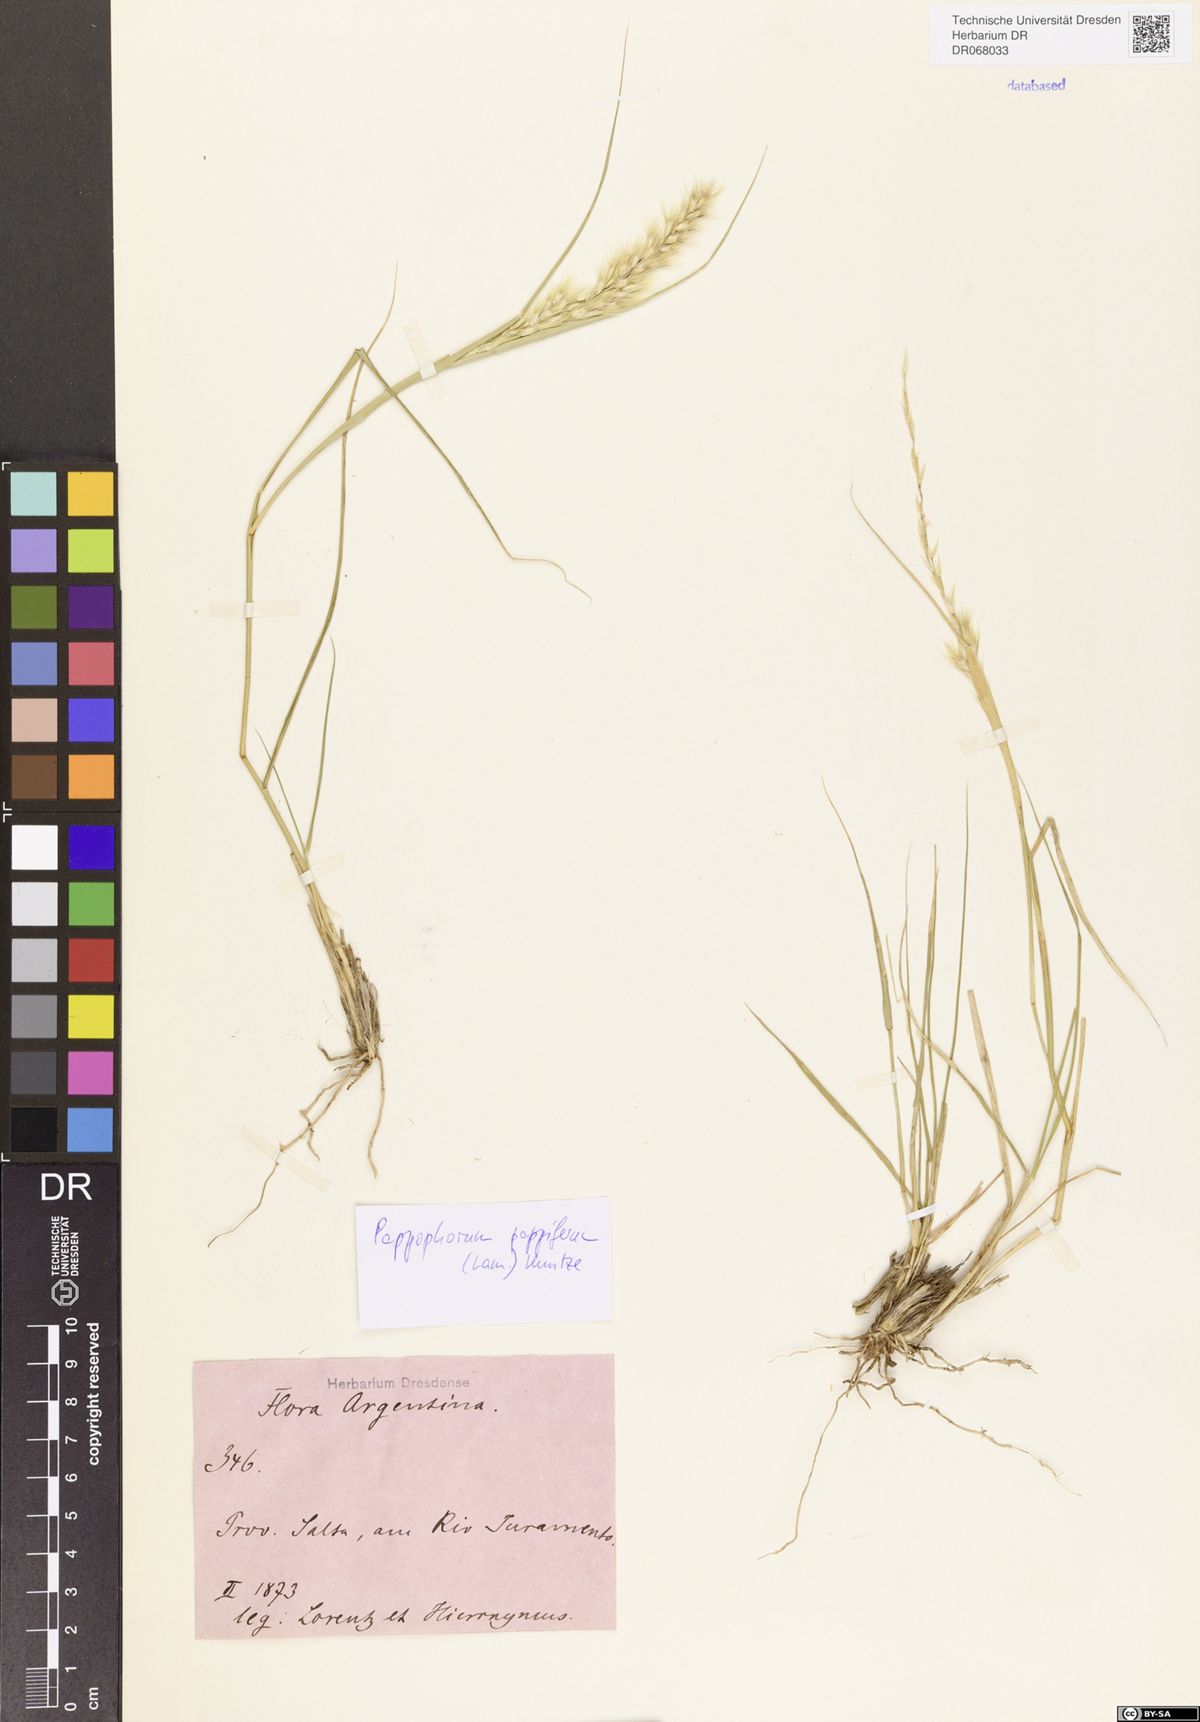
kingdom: Plantae
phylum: Tracheophyta
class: Liliopsida
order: Poales
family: Poaceae
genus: Pappophorum
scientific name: Pappophorum pappiferum
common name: Crabgrass
